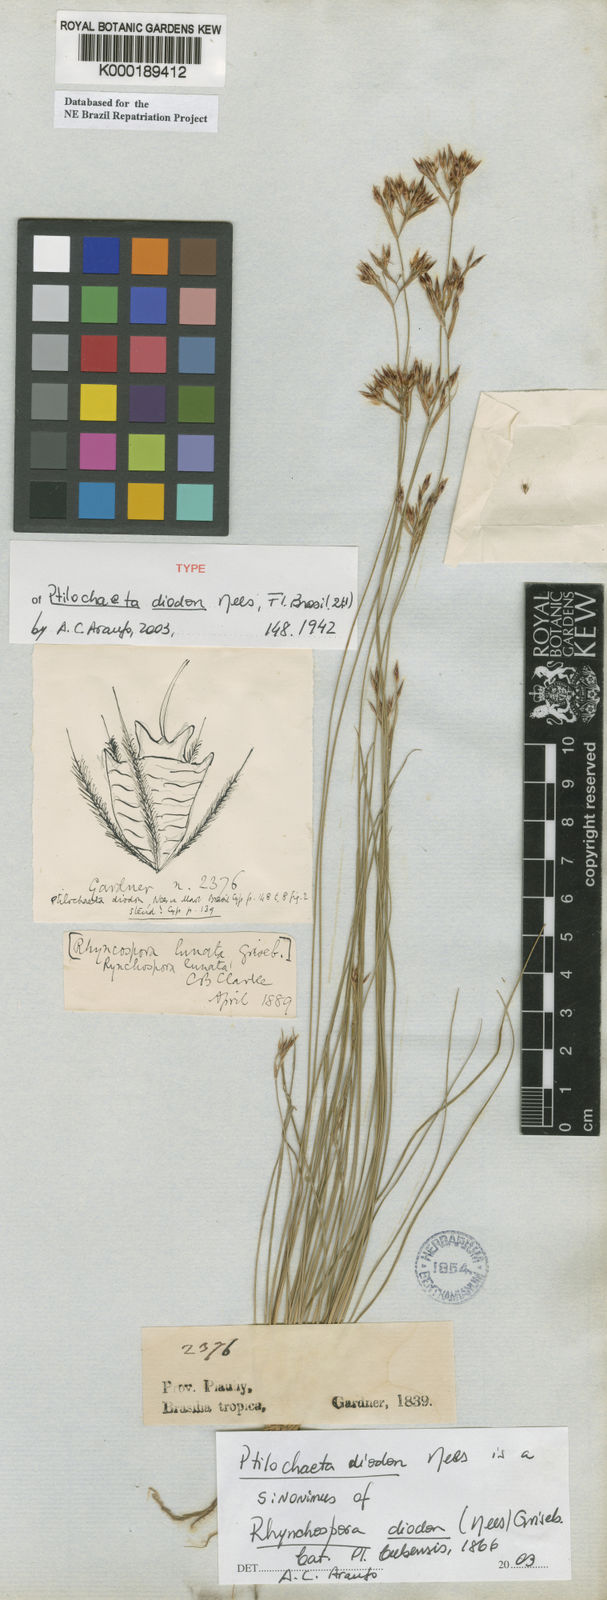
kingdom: Plantae
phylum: Tracheophyta
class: Liliopsida
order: Poales
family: Cyperaceae
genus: Rhynchospora
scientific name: Rhynchospora diodon
